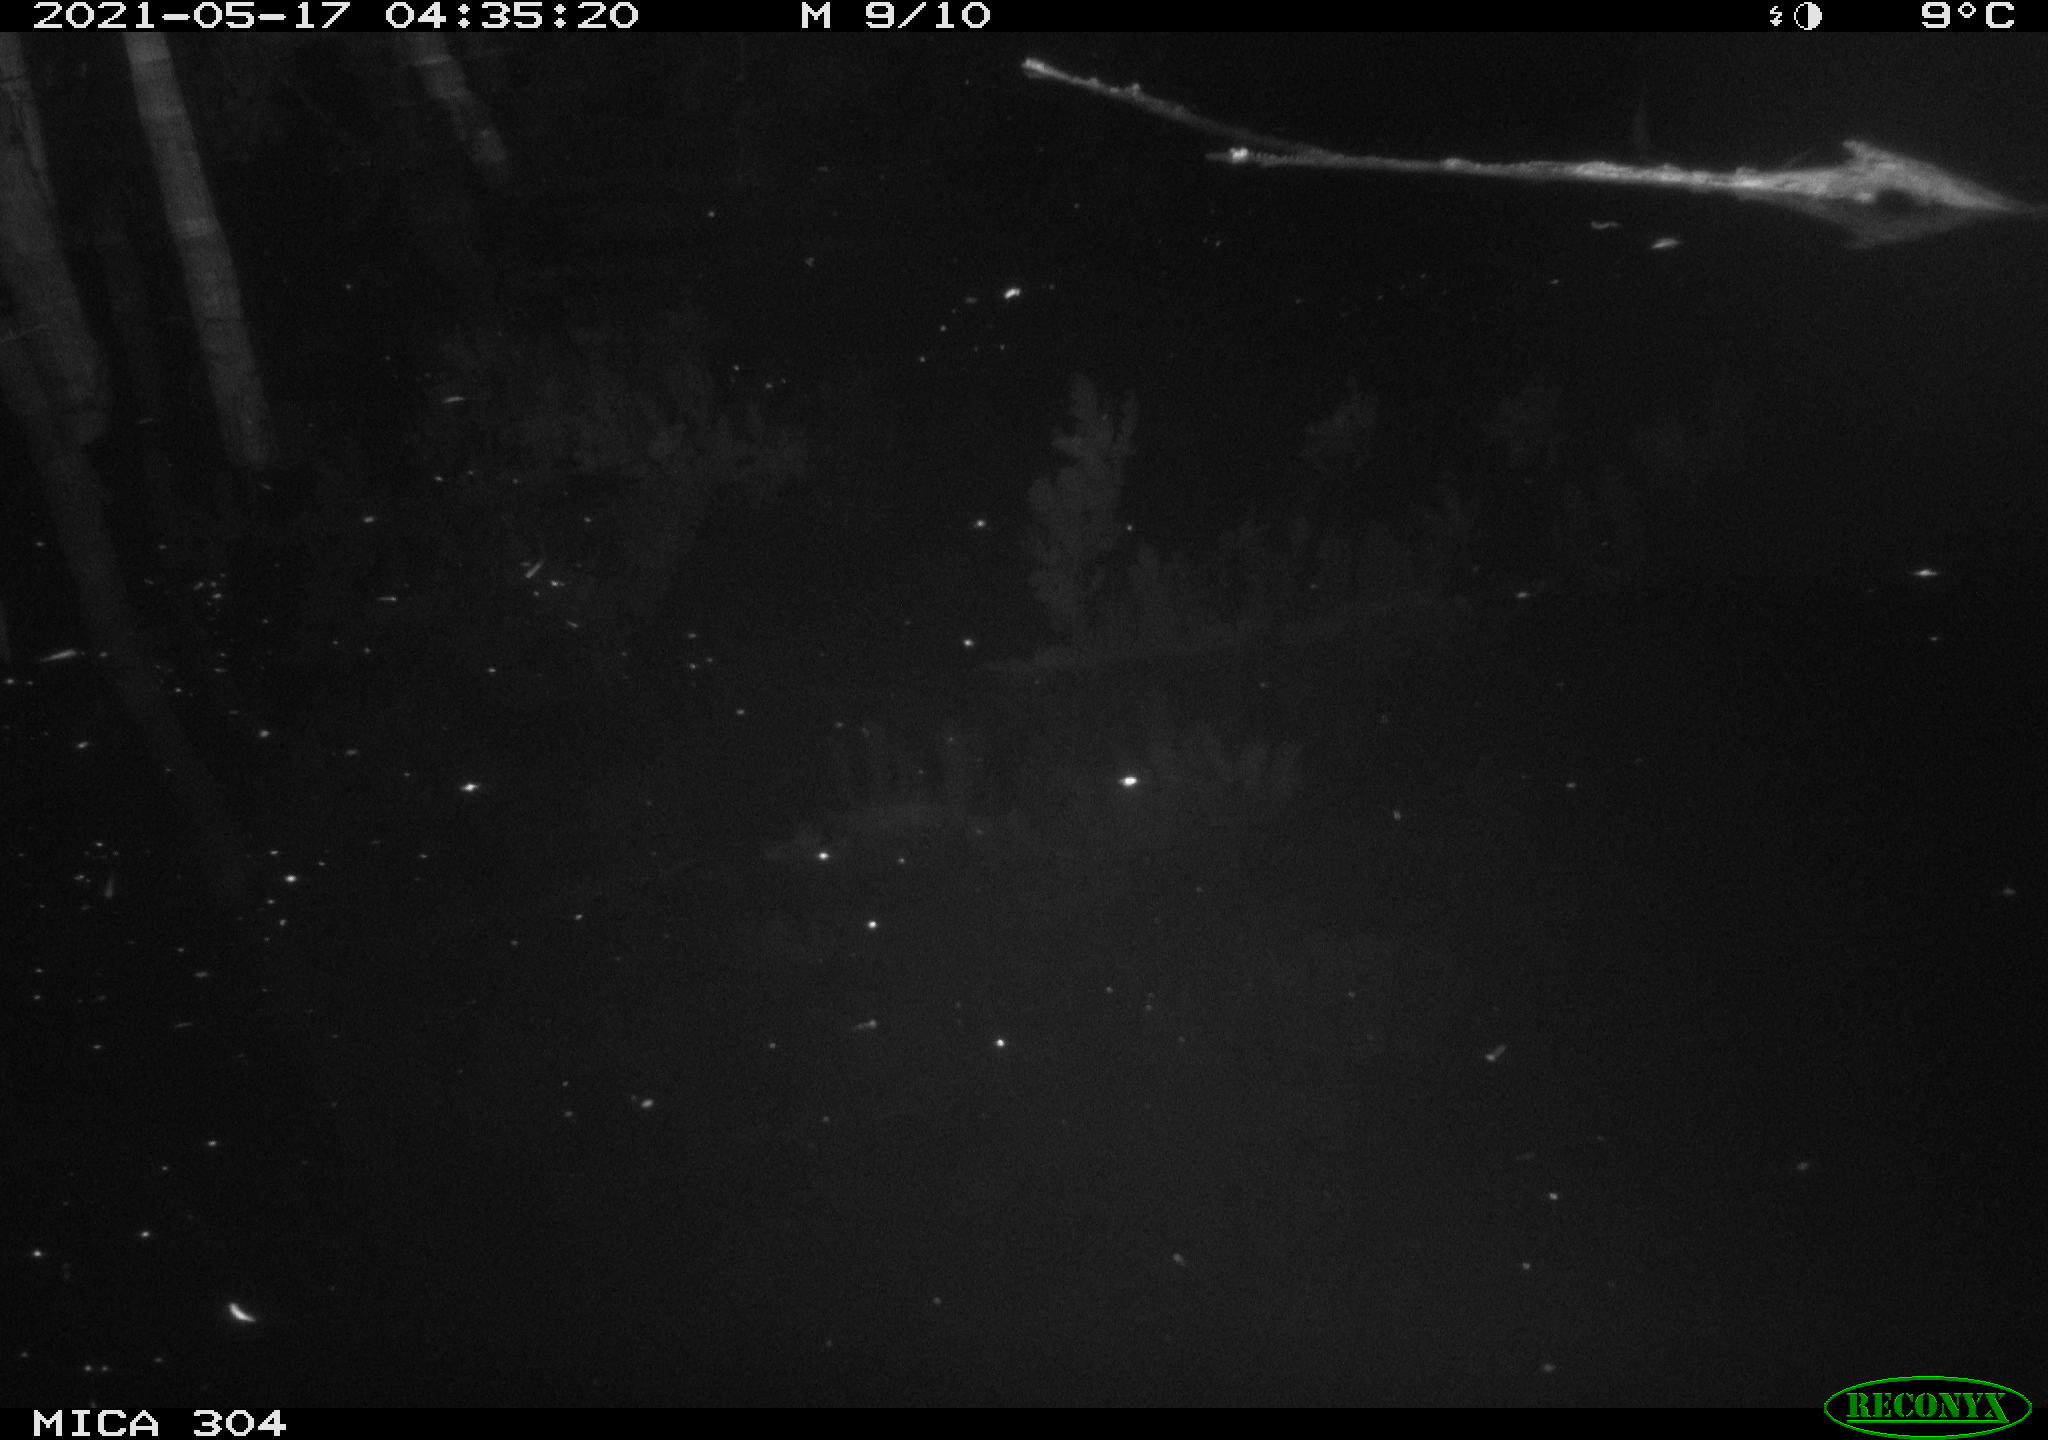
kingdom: Animalia
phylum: Chordata
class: Aves
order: Anseriformes
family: Anatidae
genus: Anas
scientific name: Anas platyrhynchos
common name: Mallard
